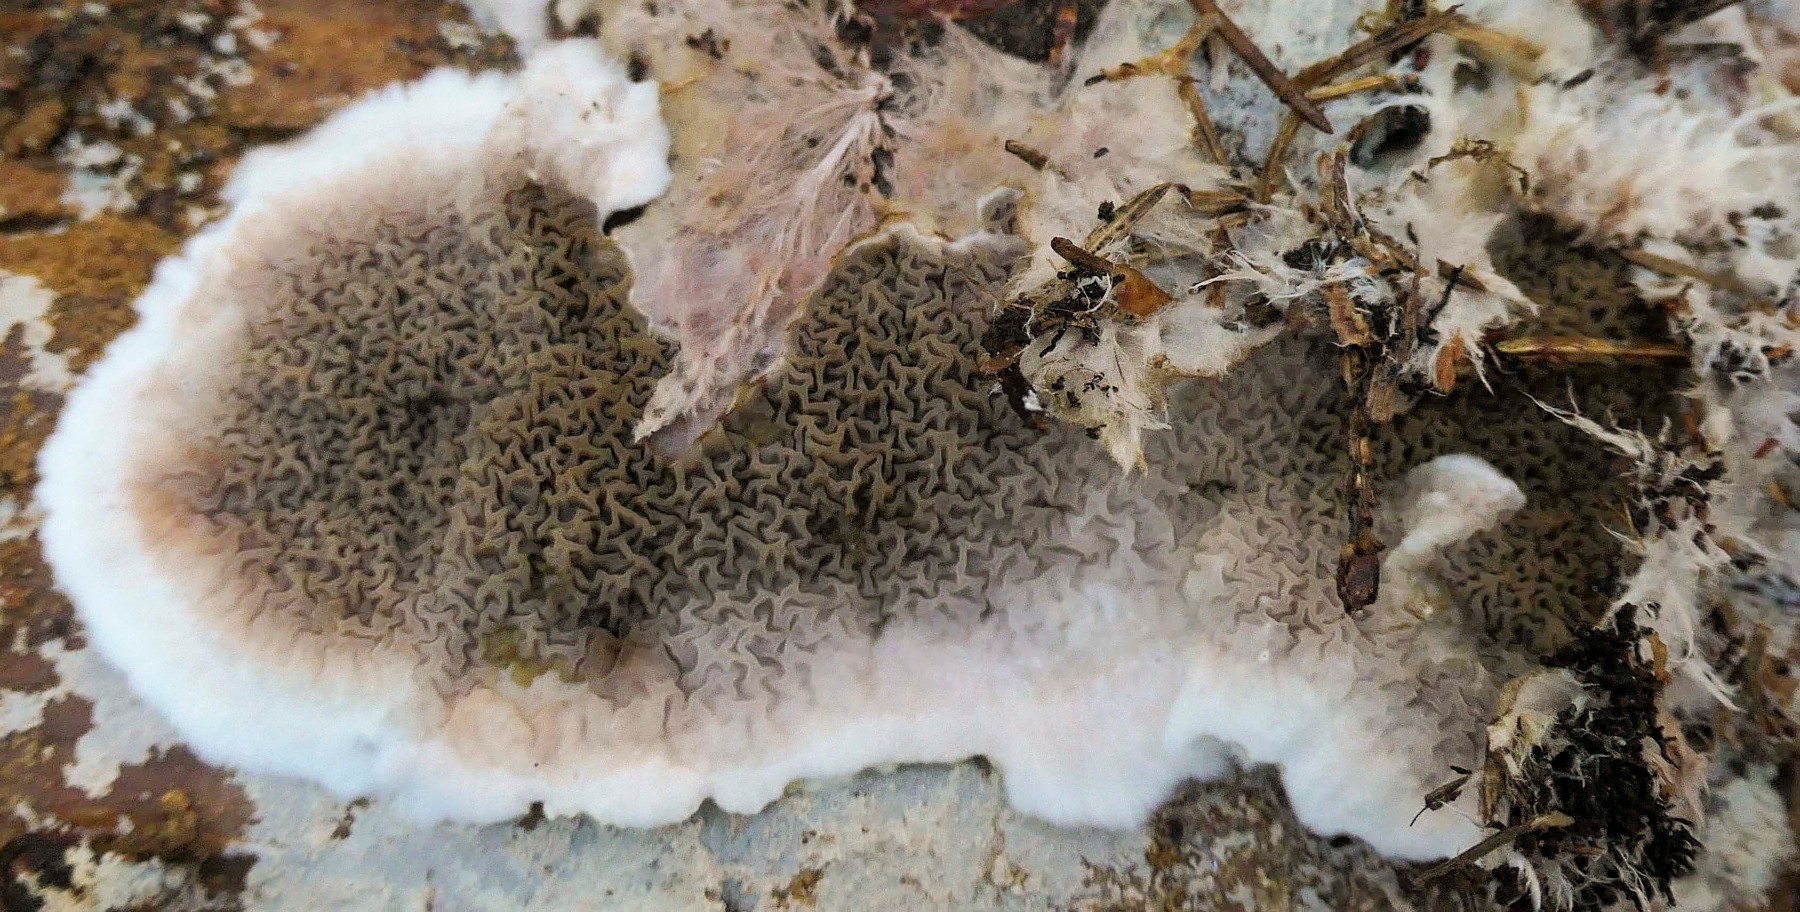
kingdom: Fungi
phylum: Basidiomycota
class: Agaricomycetes
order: Boletales
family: Serpulaceae
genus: Serpula
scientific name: Serpula himantioides
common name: tyndkødet hussvamp
